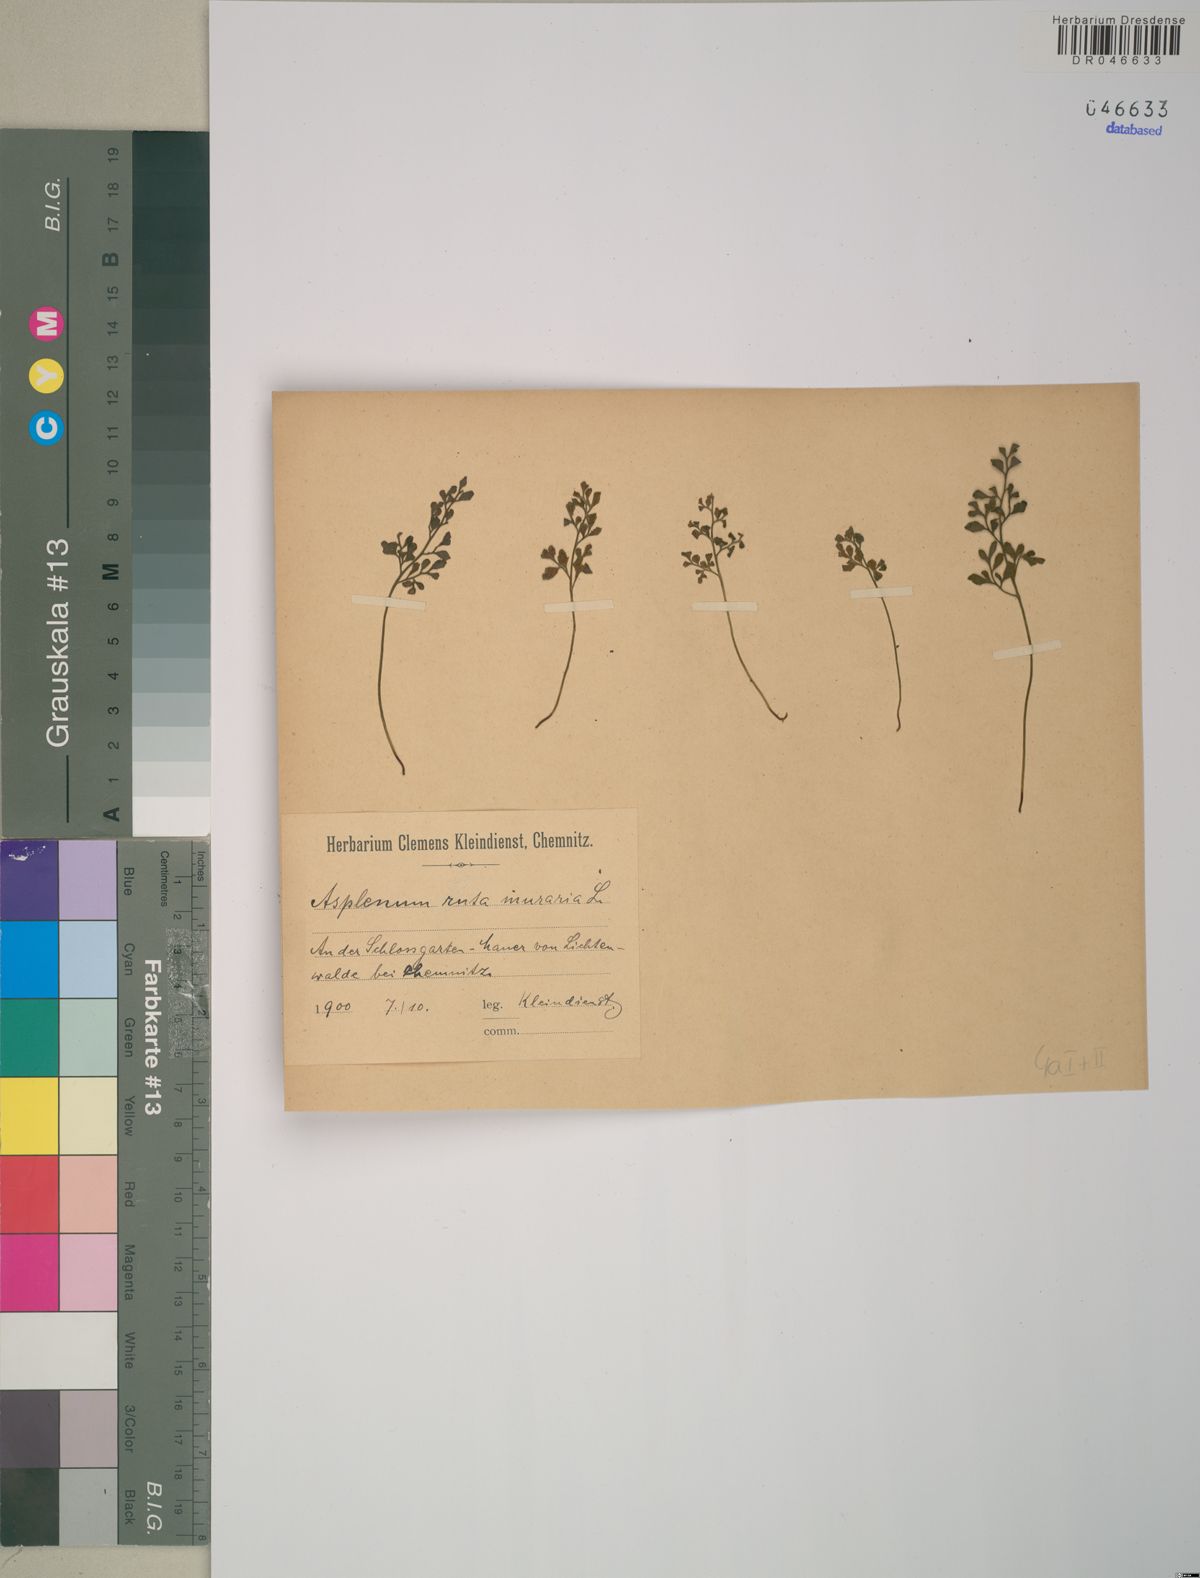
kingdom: Plantae
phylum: Tracheophyta
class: Polypodiopsida
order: Polypodiales
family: Aspleniaceae
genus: Asplenium
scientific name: Asplenium ruta-muraria
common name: Wall-rue
